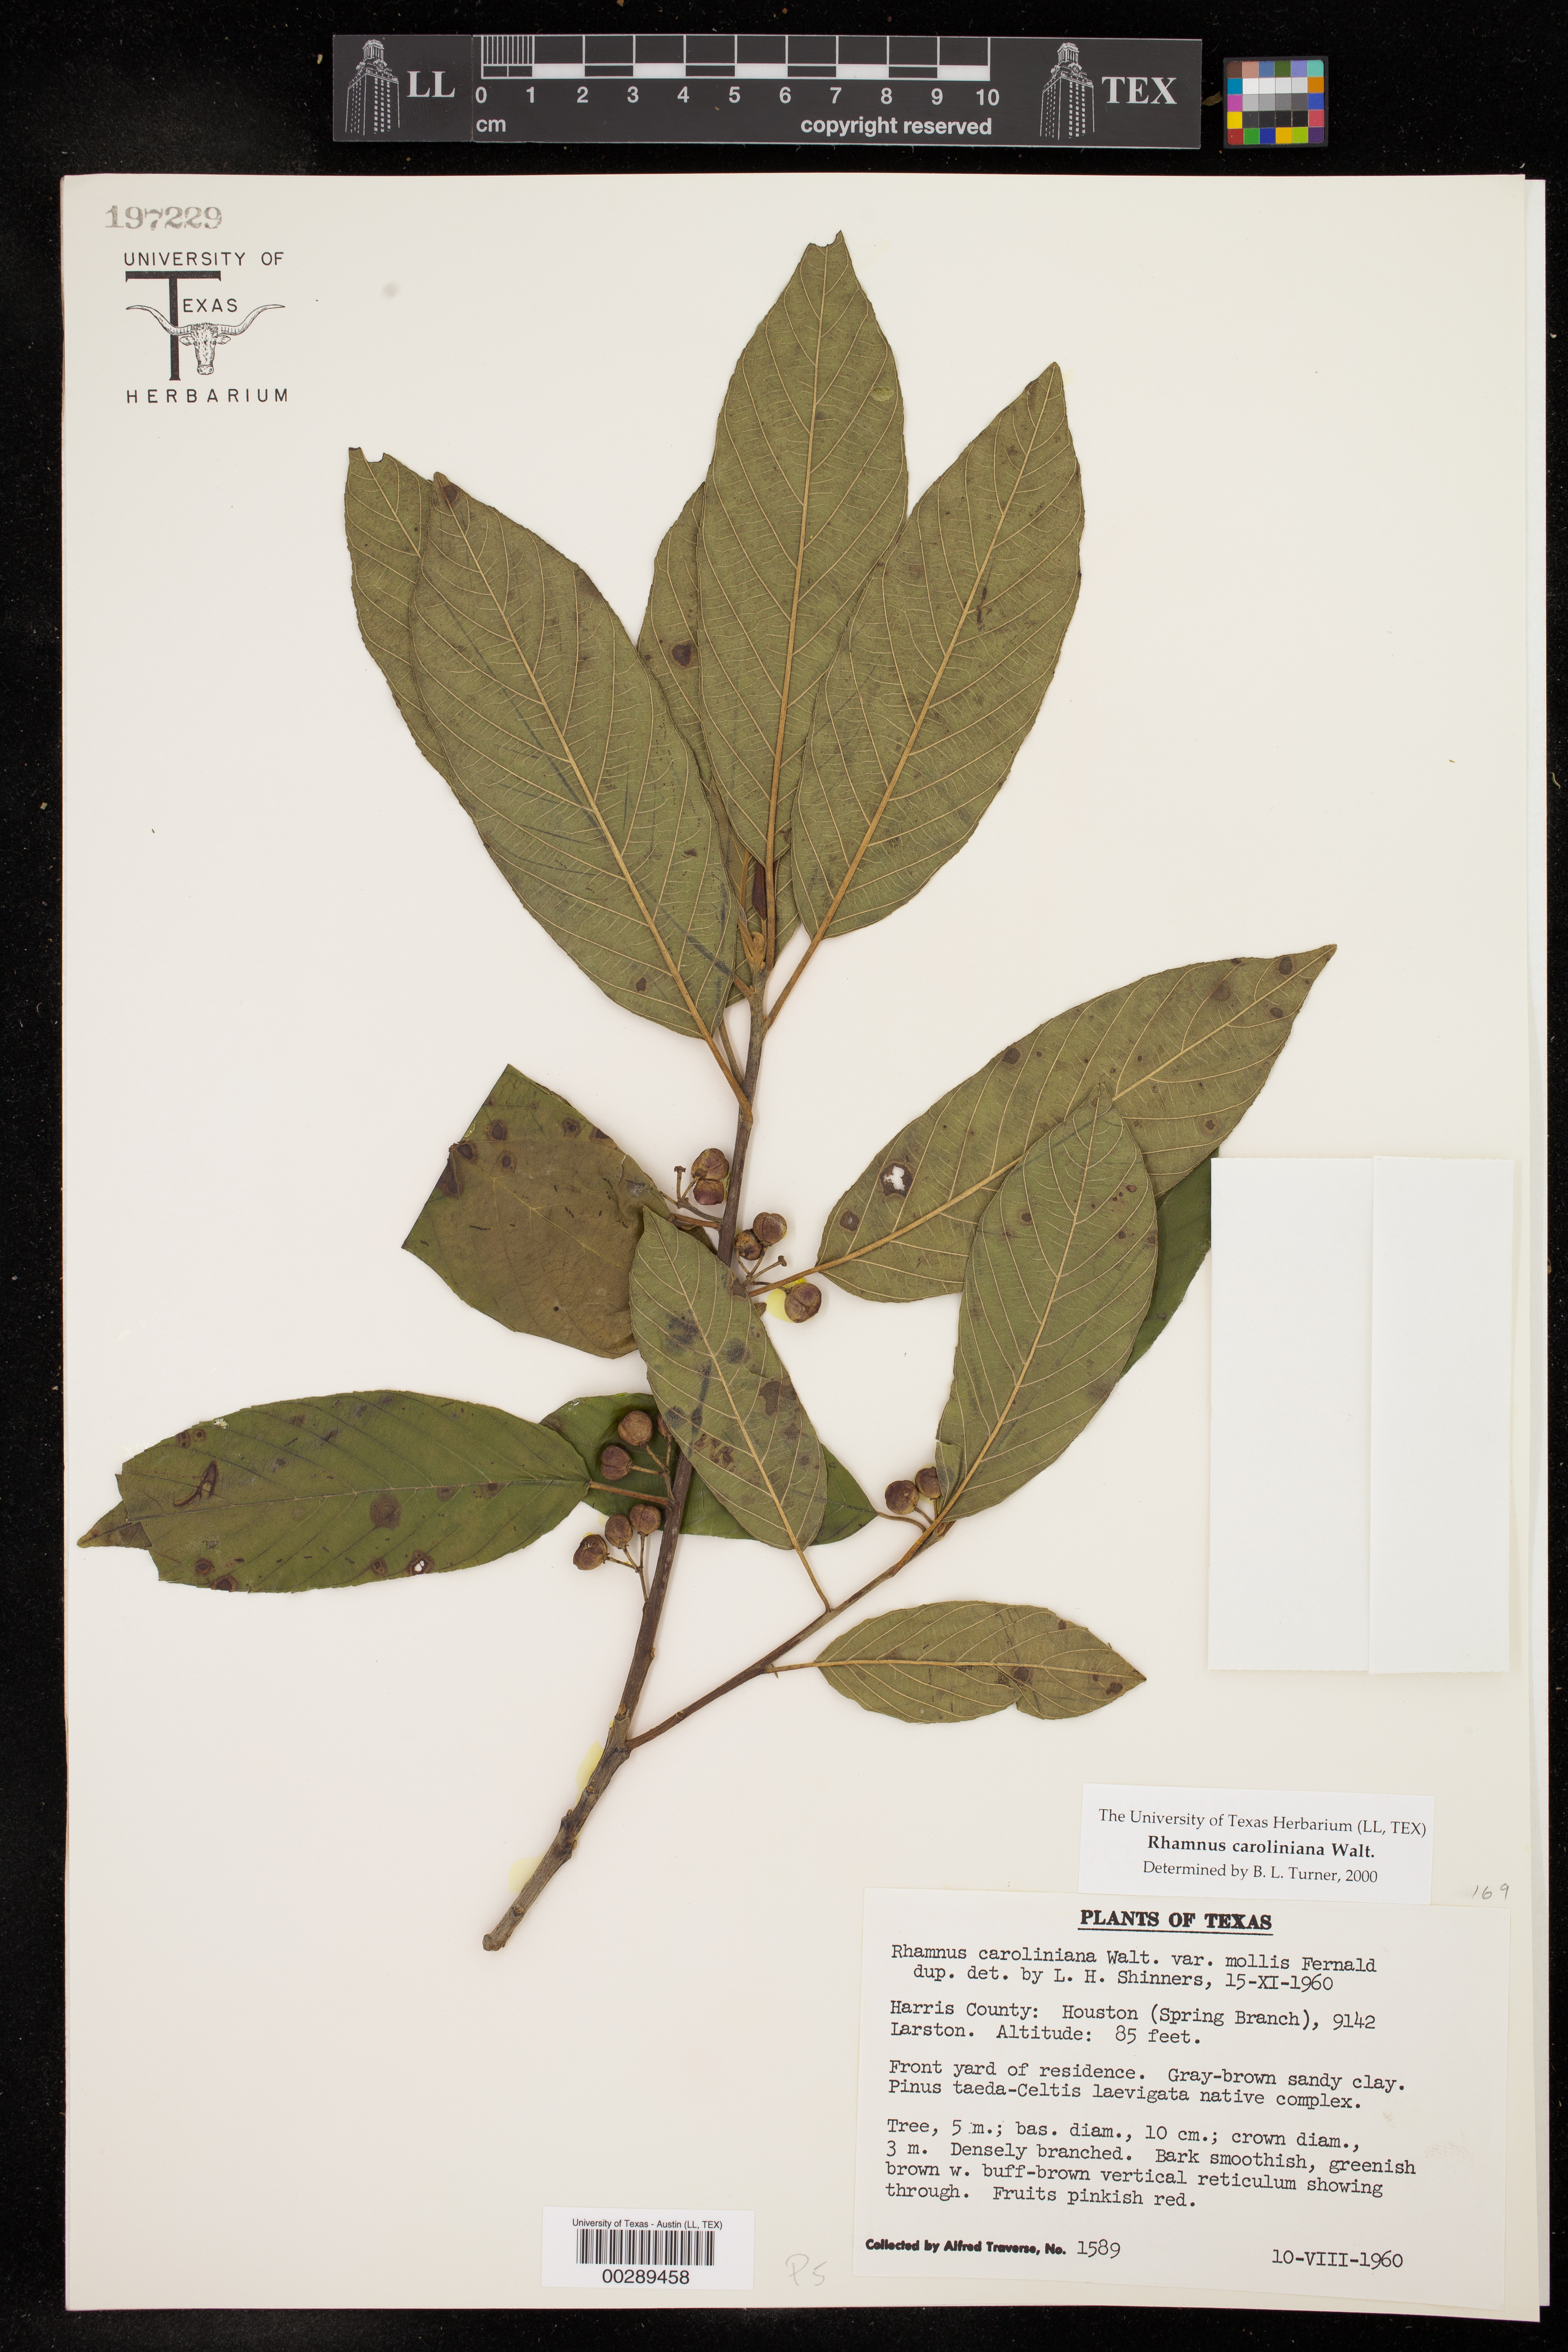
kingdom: Plantae
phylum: Tracheophyta
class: Magnoliopsida
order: Rosales
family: Rhamnaceae
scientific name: Rhamnaceae
